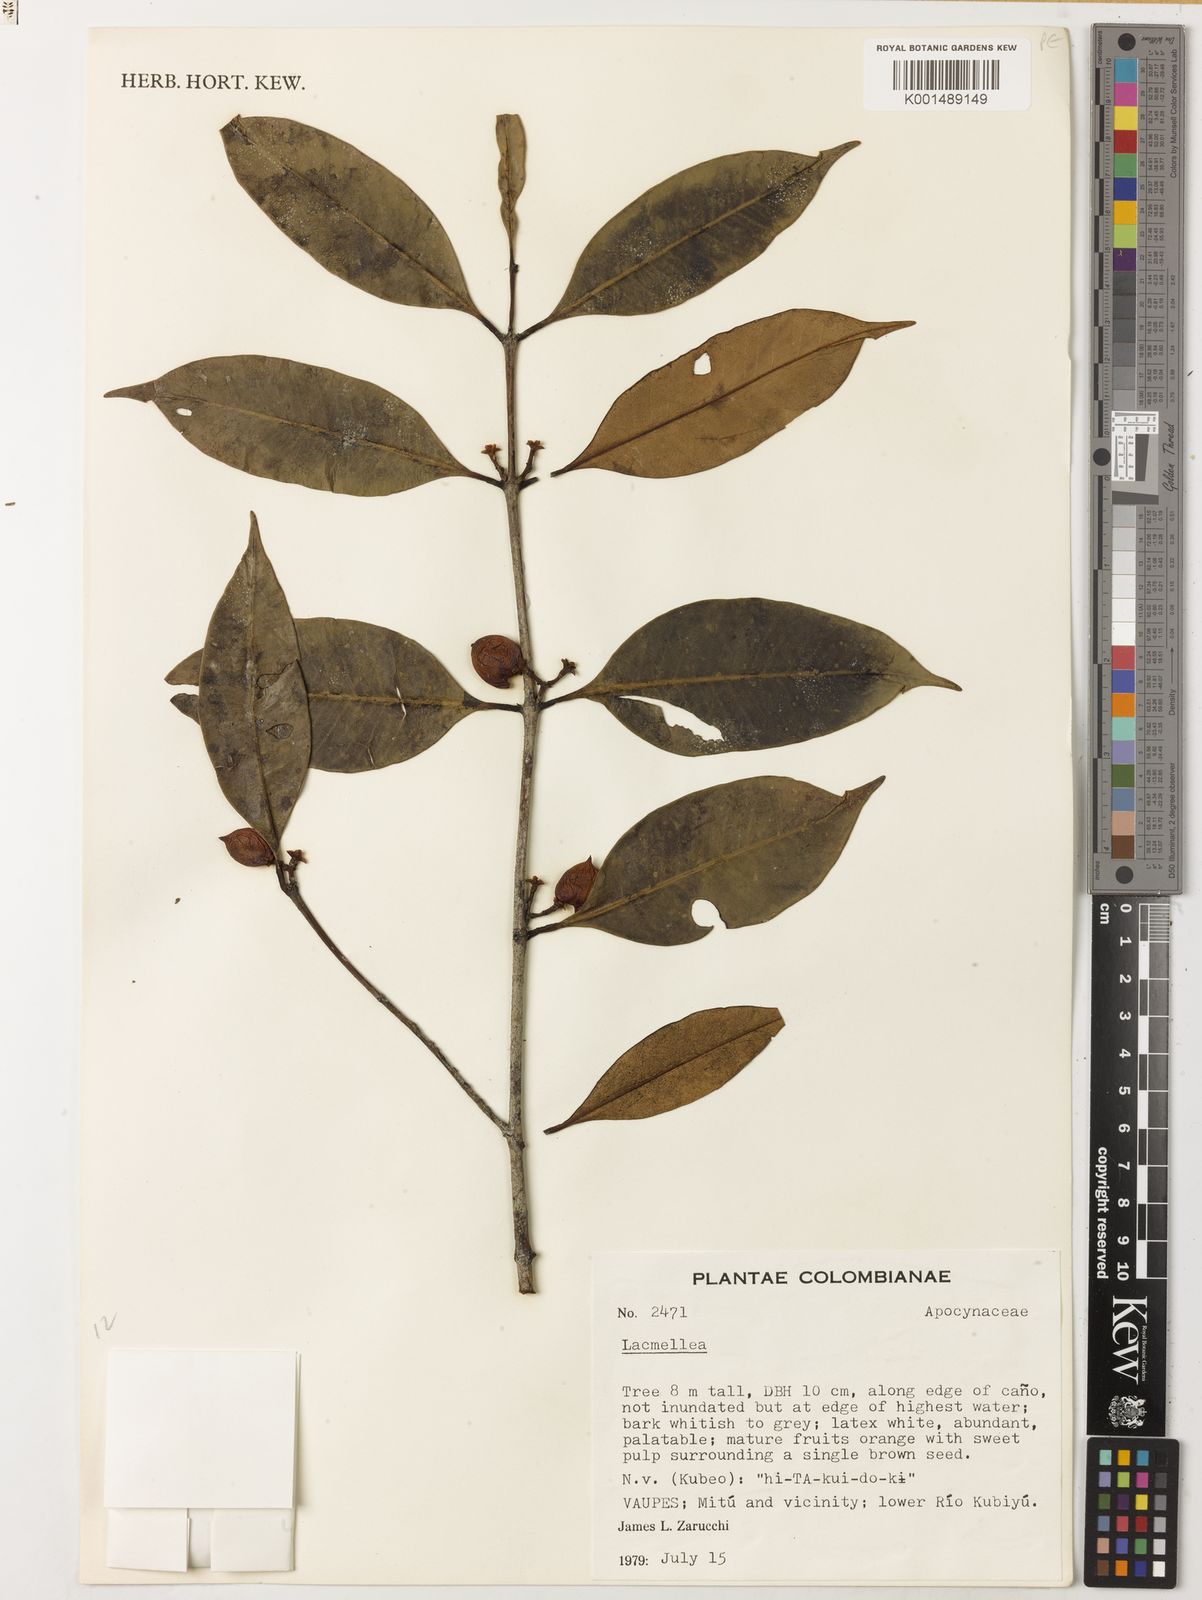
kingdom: Plantae
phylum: Tracheophyta
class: Magnoliopsida
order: Gentianales
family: Apocynaceae
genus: Lacmellea
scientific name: Lacmellea edulis
